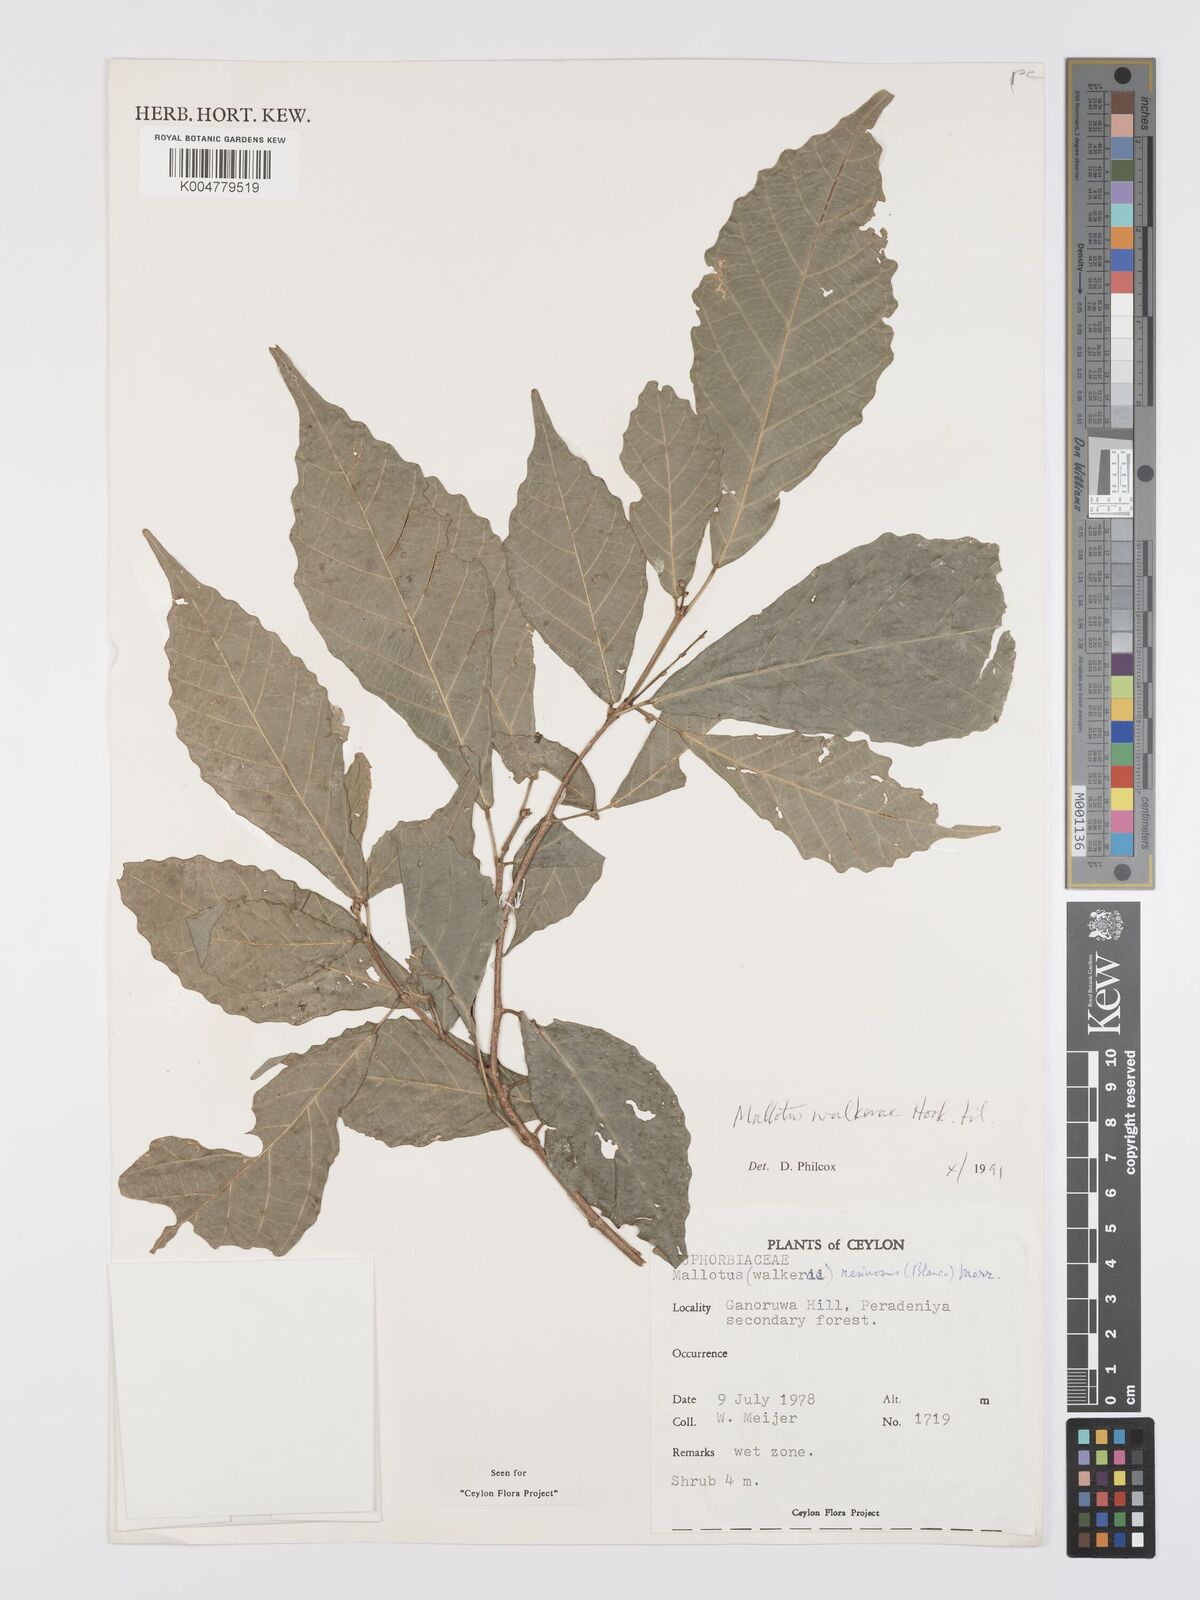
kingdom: Plantae
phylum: Tracheophyta
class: Magnoliopsida
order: Malpighiales
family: Euphorbiaceae
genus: Mallotus
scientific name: Mallotus resinosus
